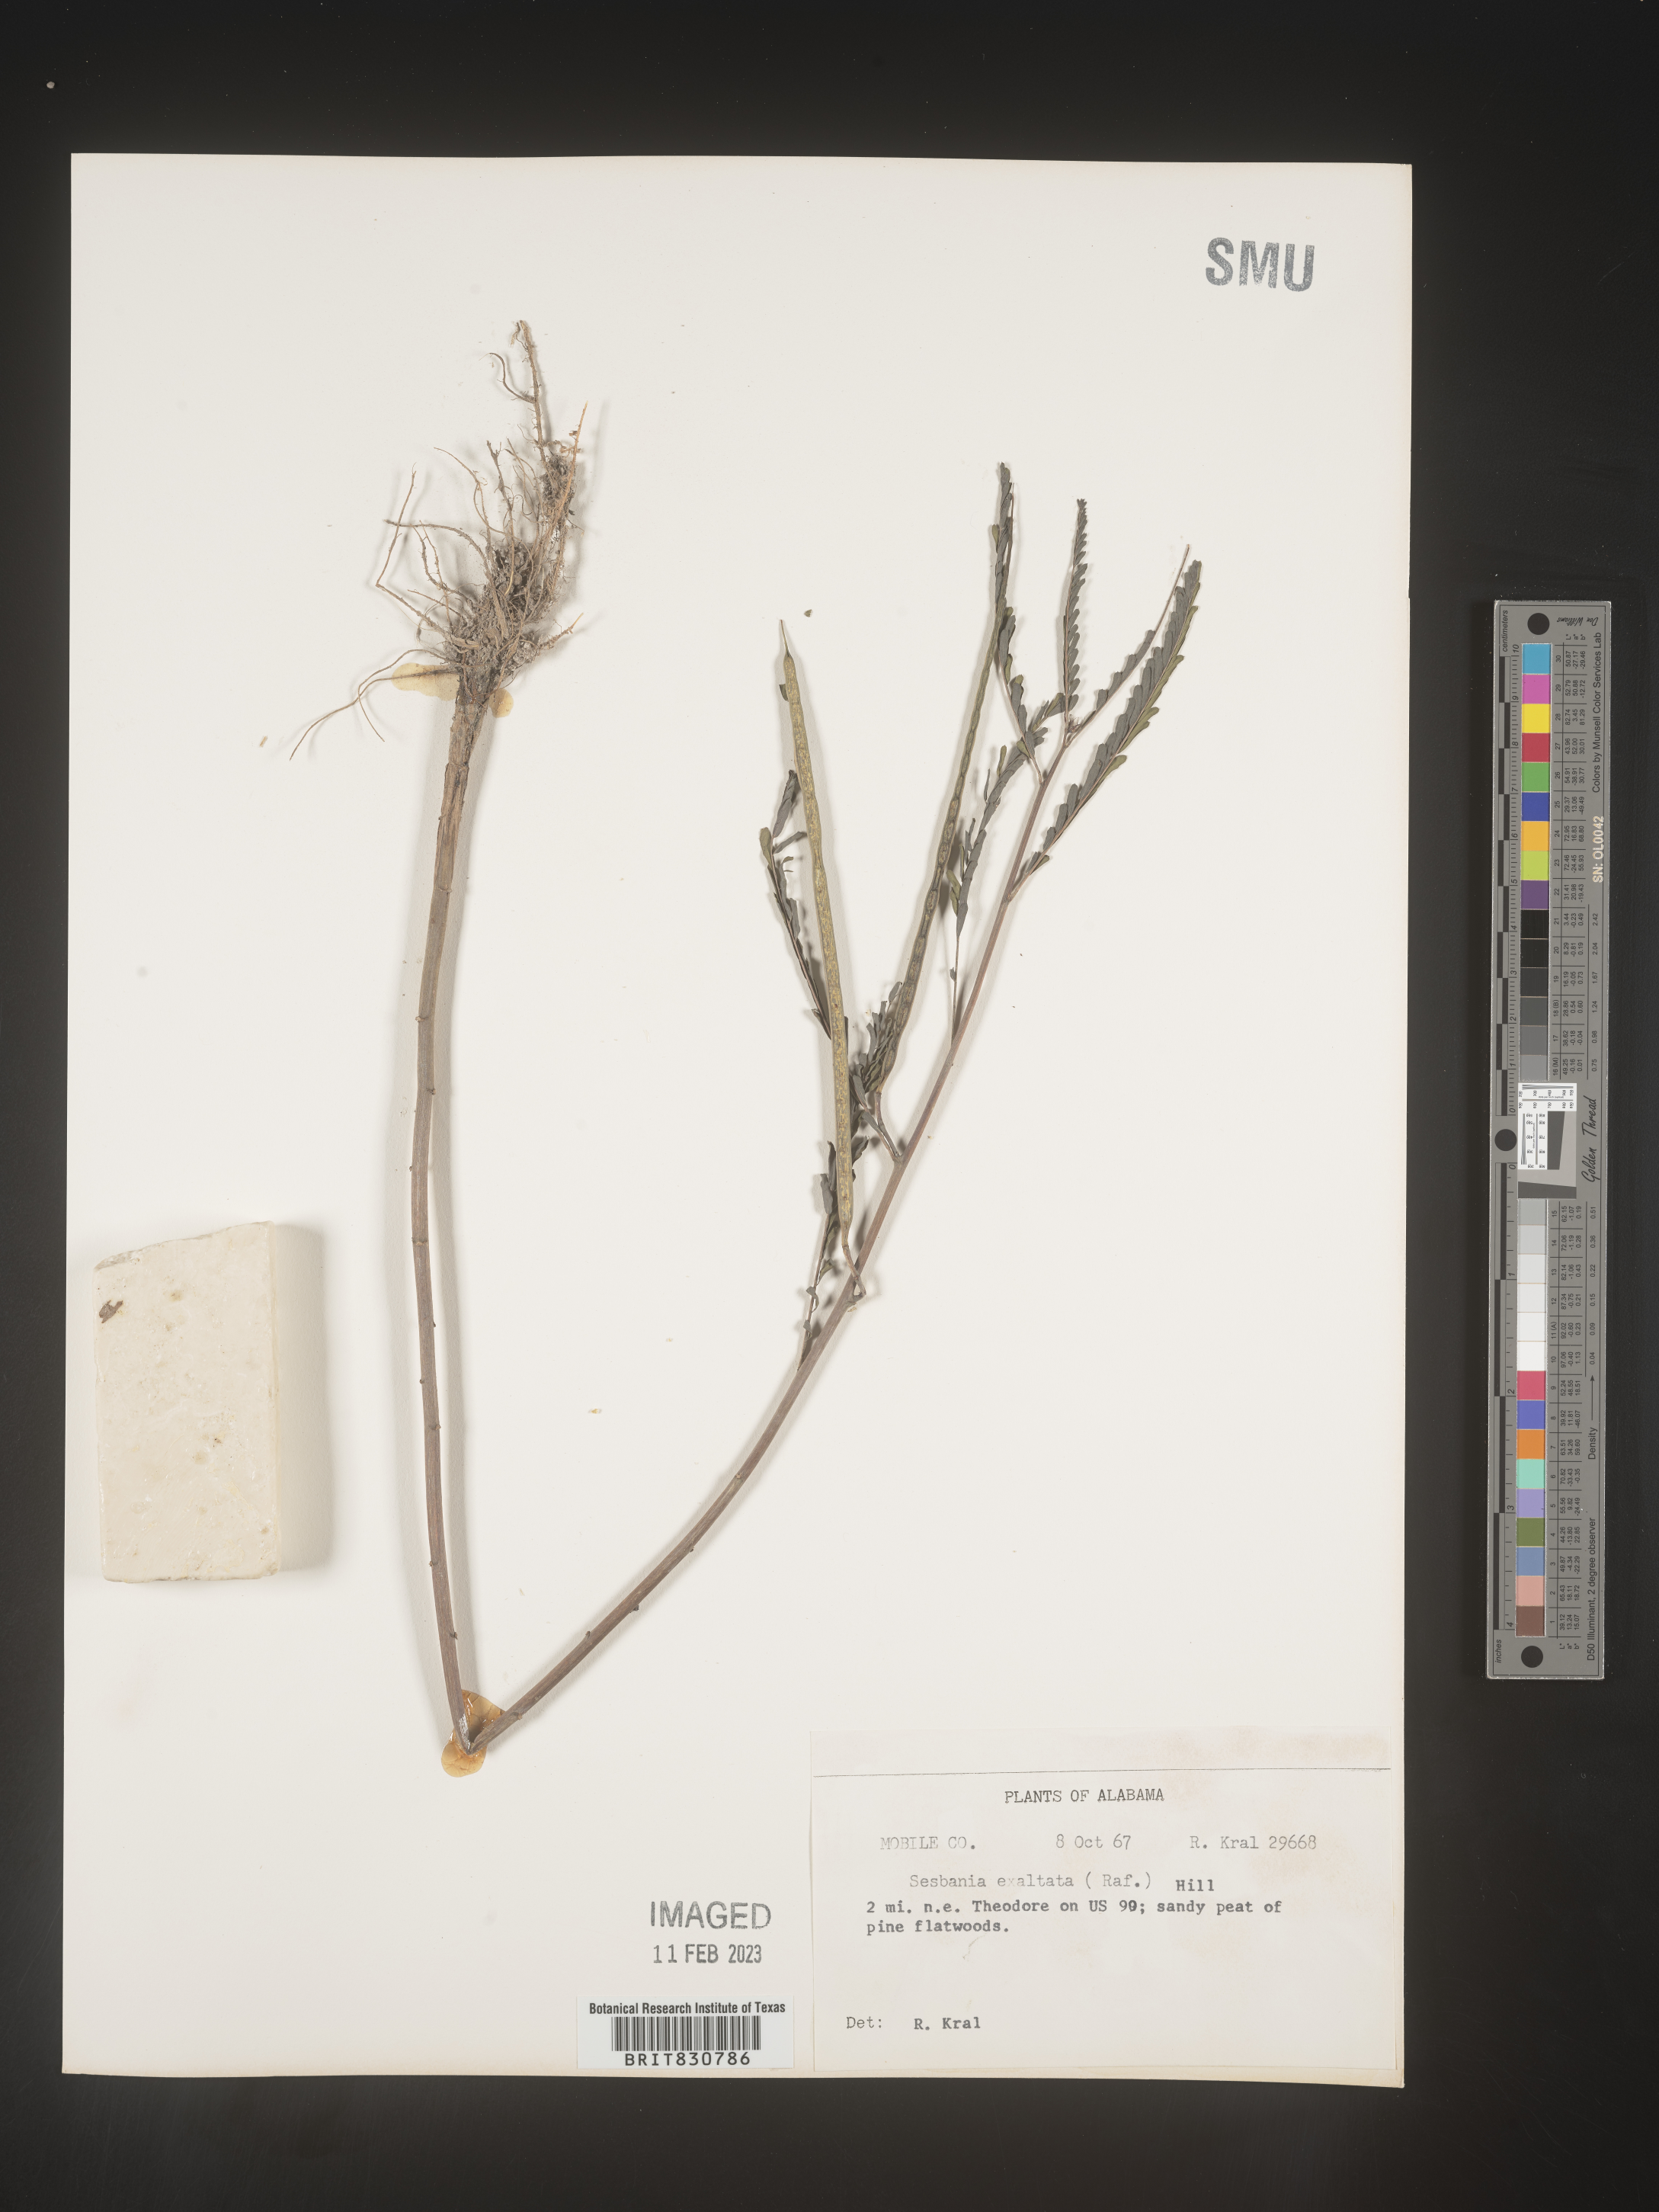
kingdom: Plantae
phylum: Tracheophyta
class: Magnoliopsida
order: Fabales
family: Fabaceae
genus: Sesbania
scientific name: Sesbania vesicaria
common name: Bagpod
